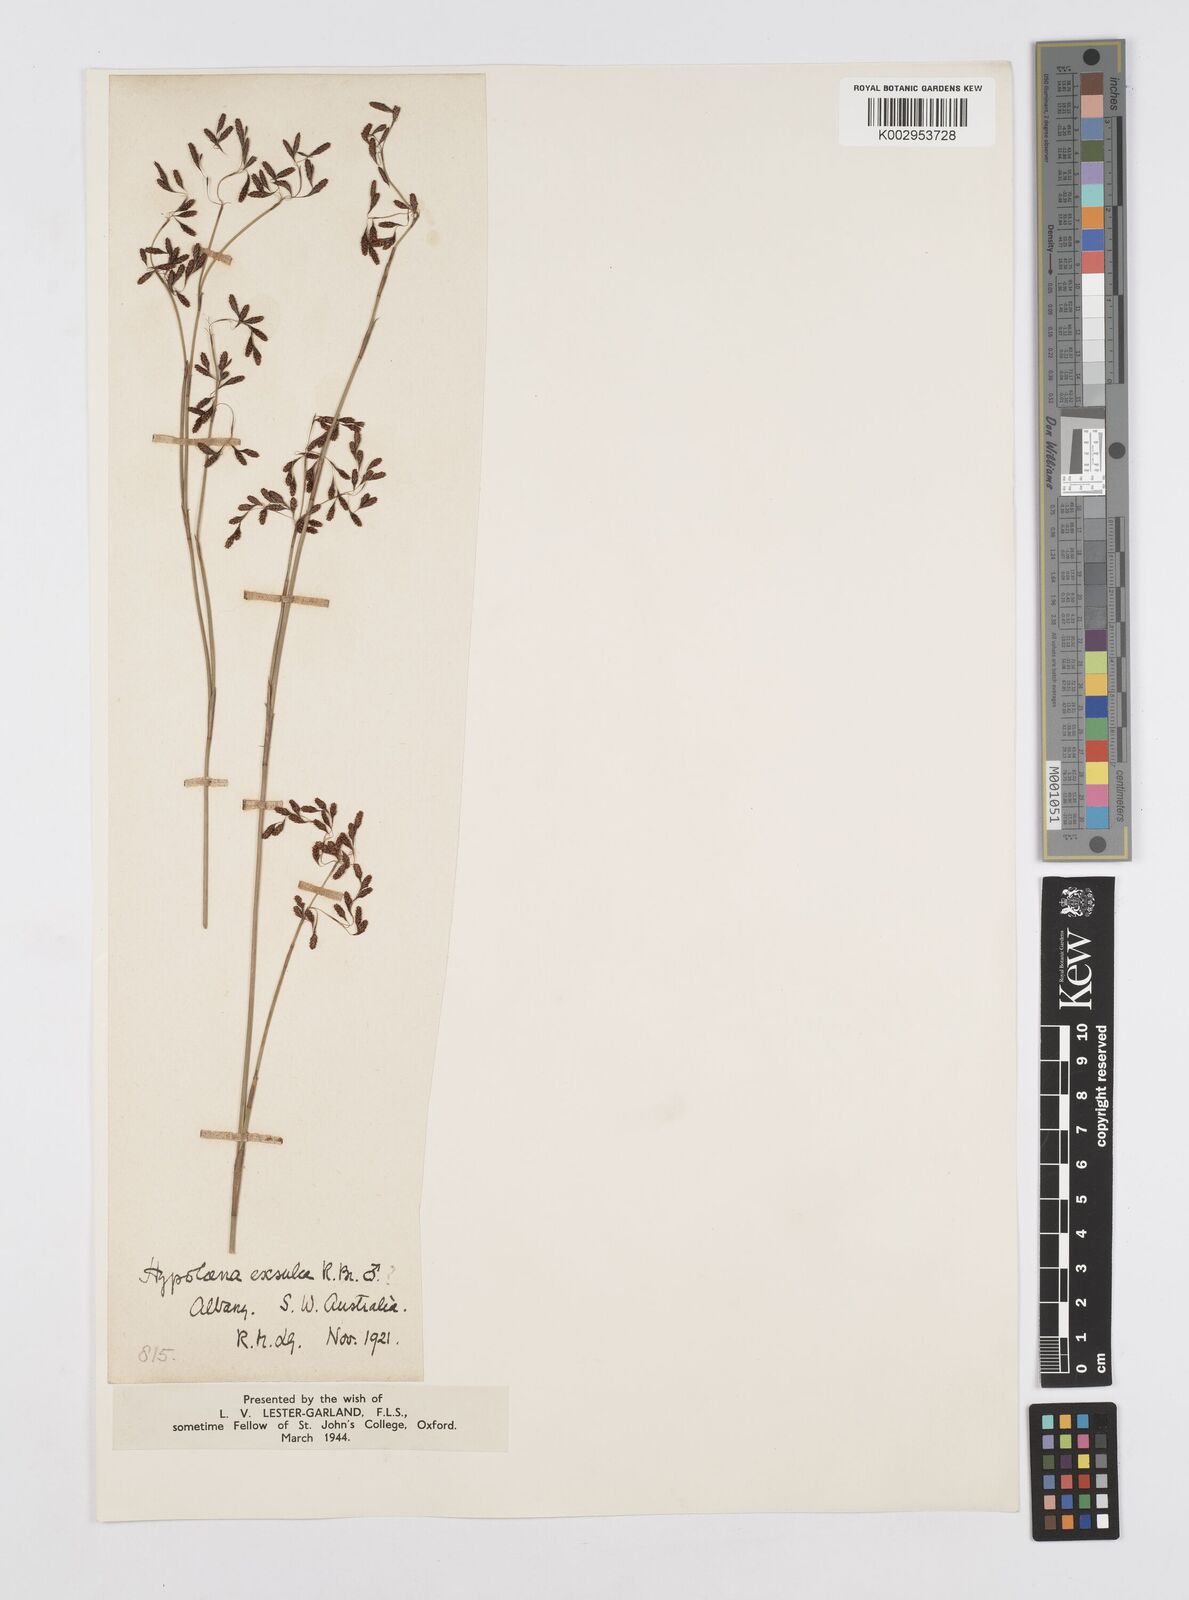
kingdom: Plantae
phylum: Tracheophyta
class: Liliopsida
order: Poales
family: Restionaceae
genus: Hypolaena
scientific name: Hypolaena exsulca
